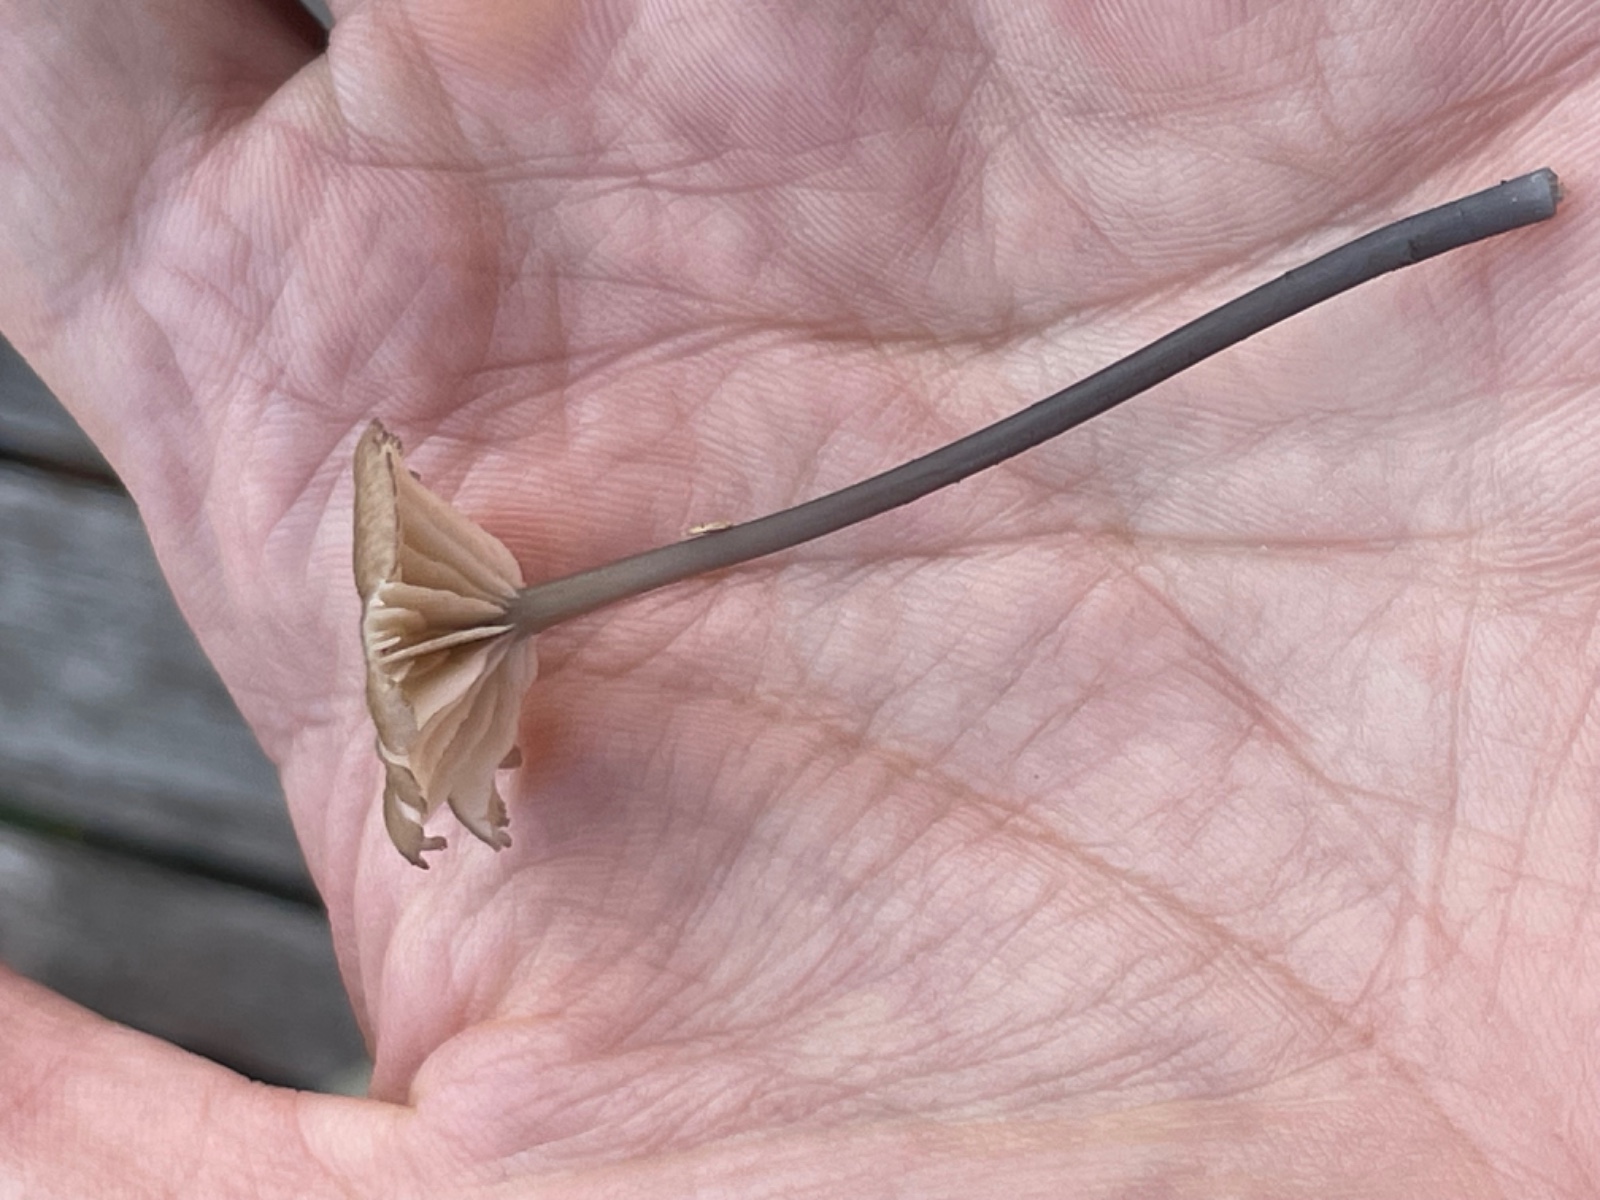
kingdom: Fungi
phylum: Basidiomycota
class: Agaricomycetes
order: Agaricales
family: Entolomataceae
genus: Entoloma
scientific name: Entoloma incarnatofuscescens
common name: tragt-rødblad
